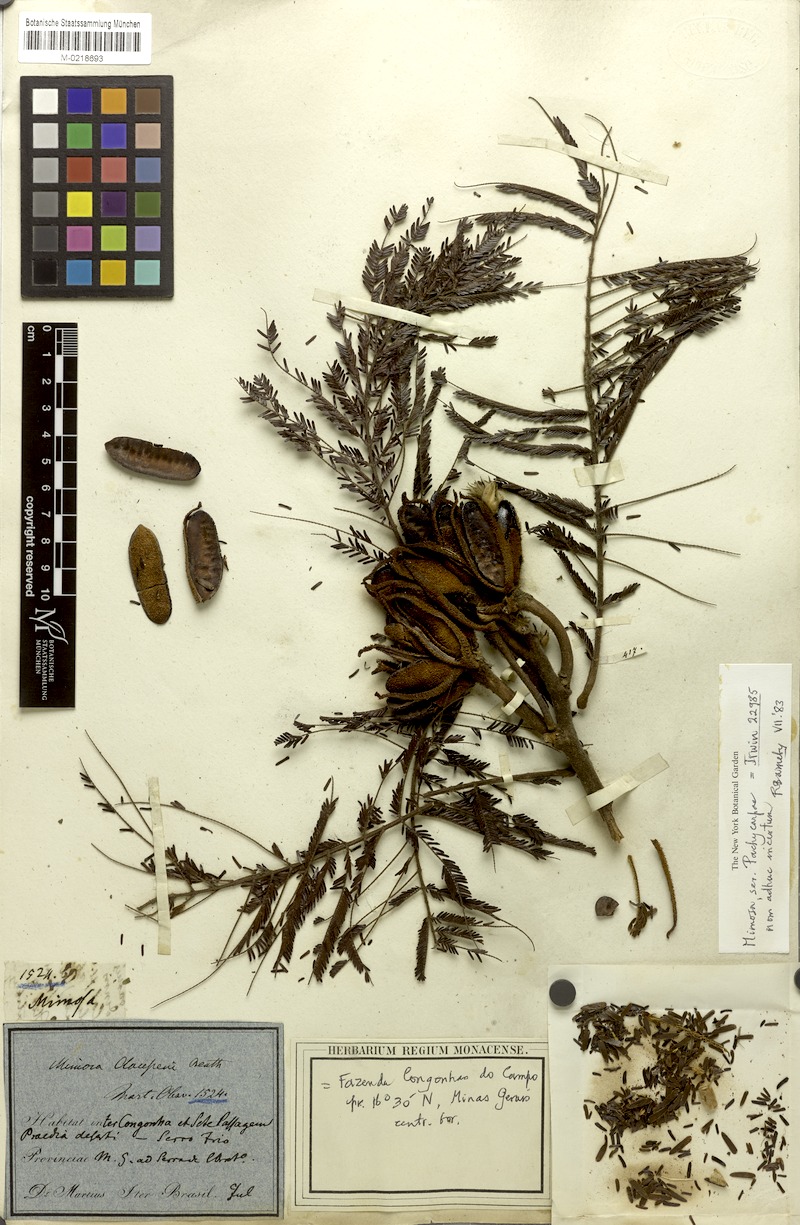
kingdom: Plantae
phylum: Tracheophyta
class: Magnoliopsida
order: Fabales
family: Fabaceae
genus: Mimosa
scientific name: Mimosa foliolosa
